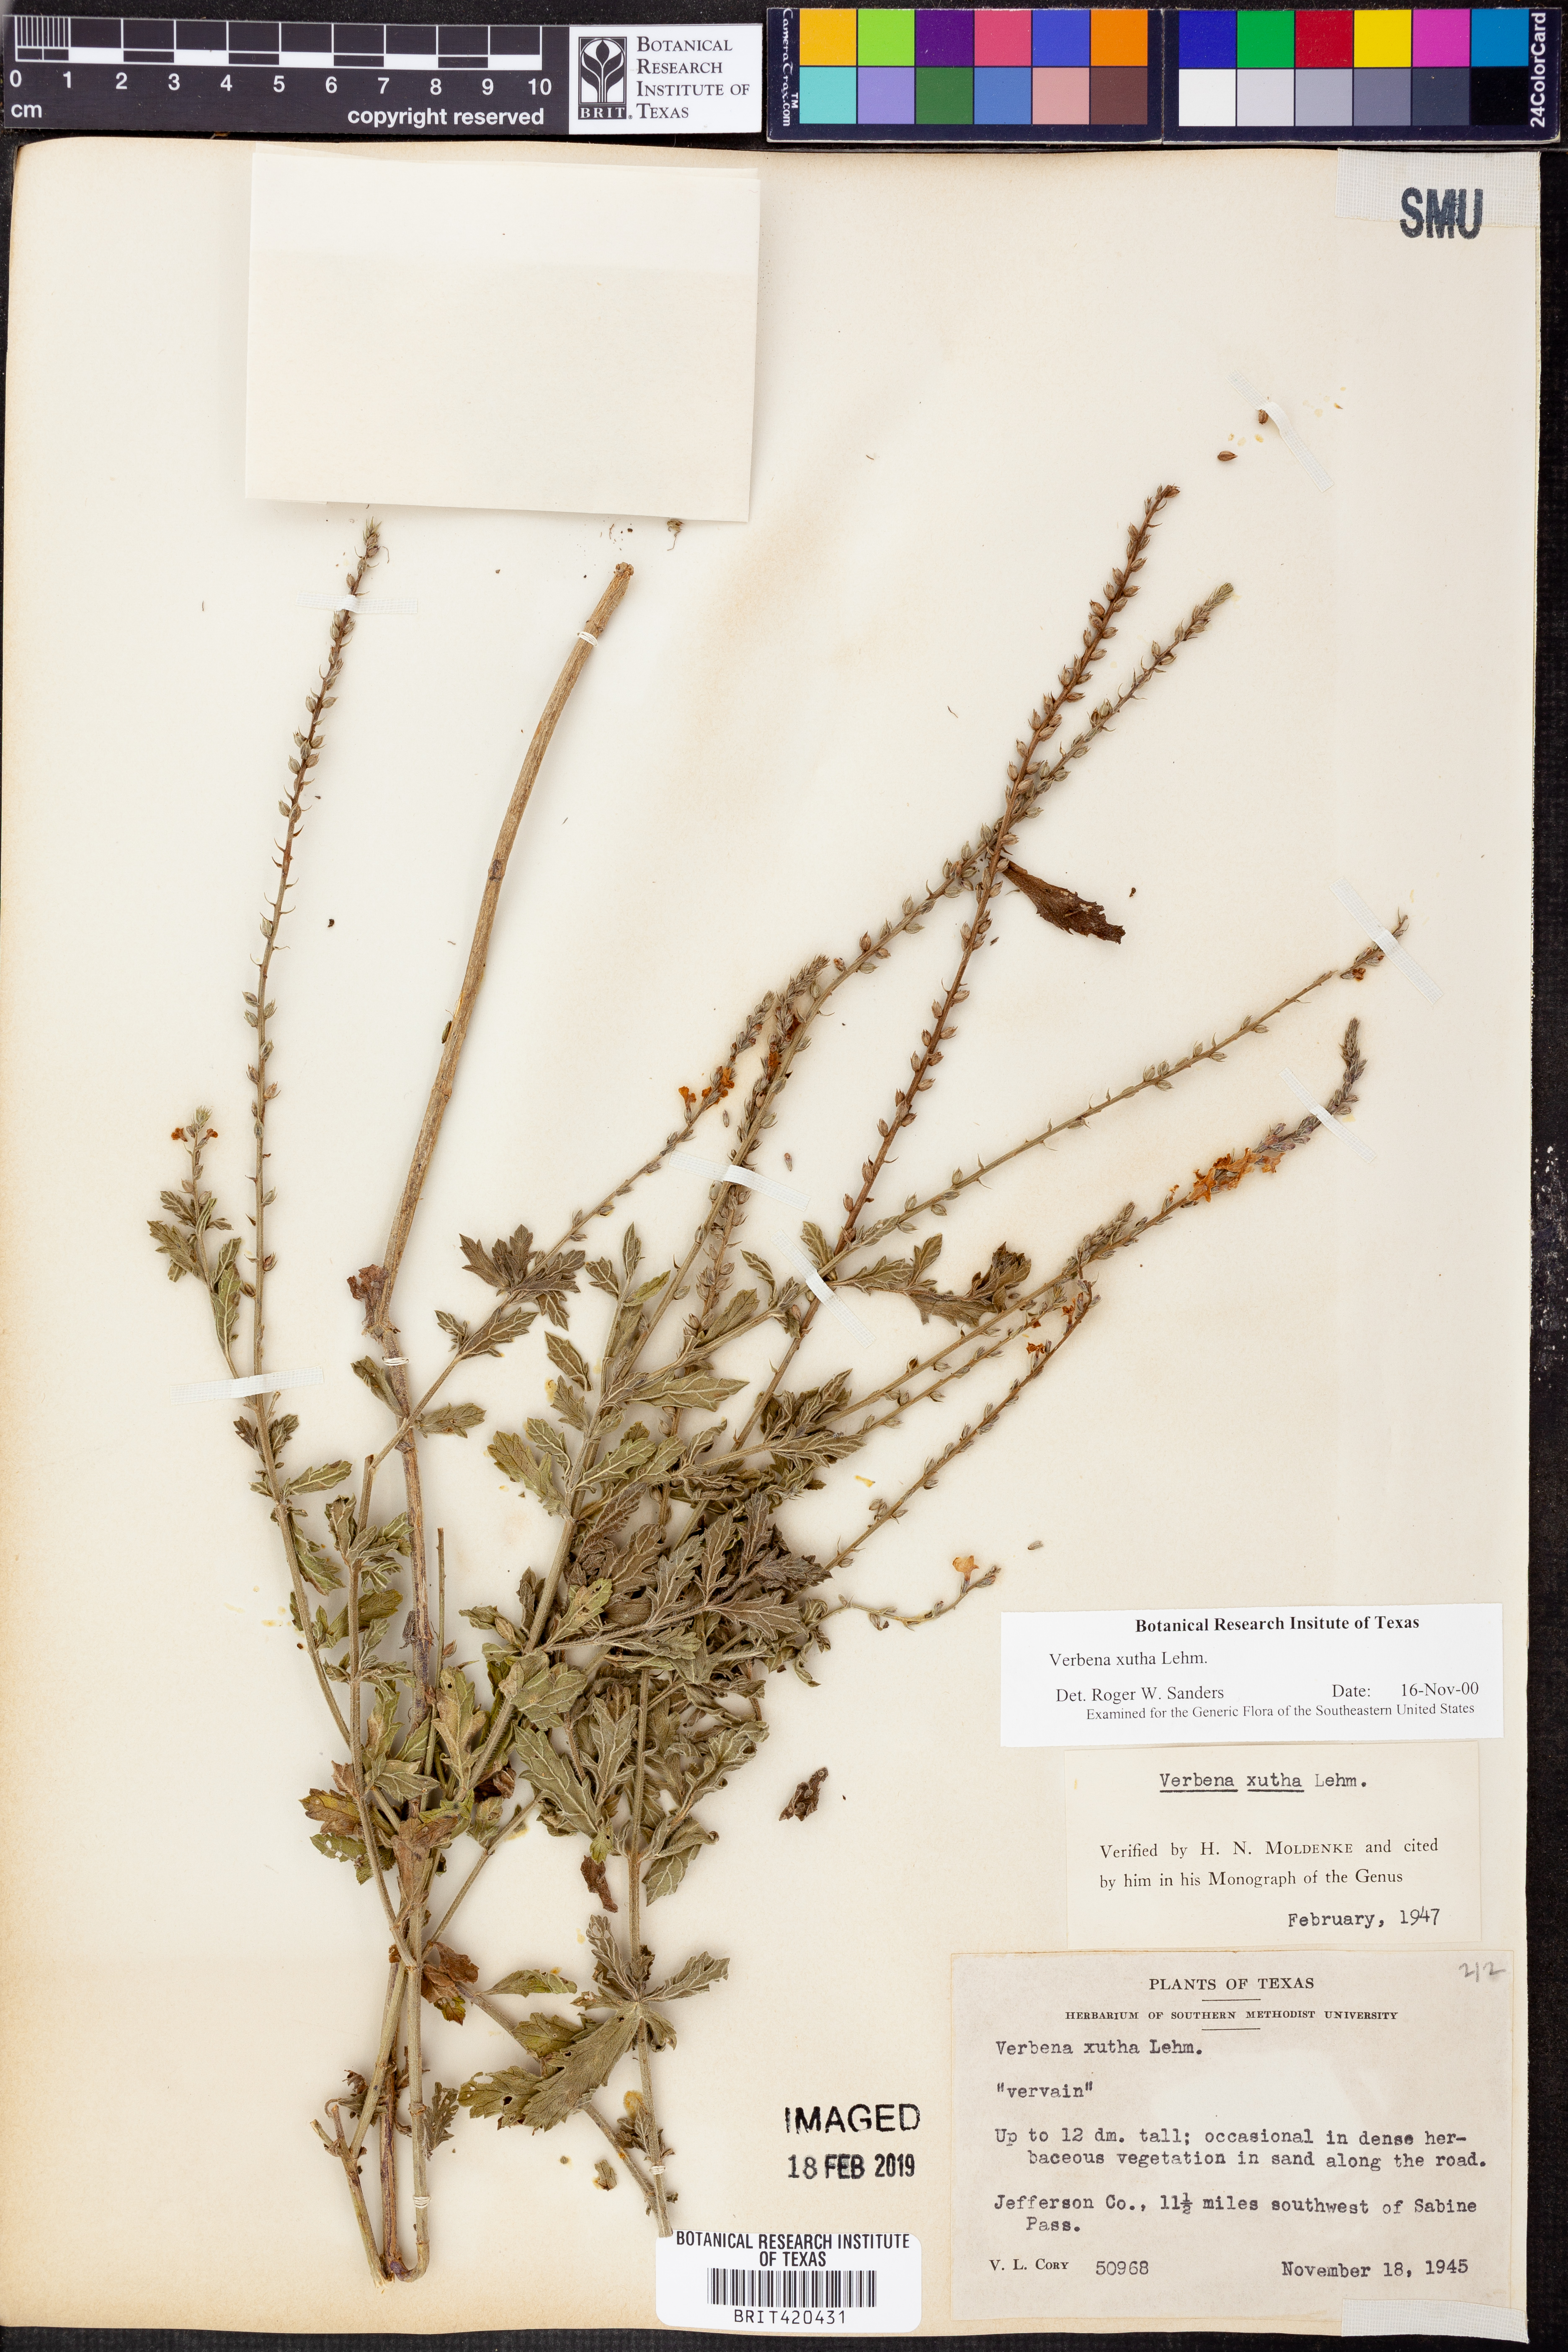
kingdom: Plantae
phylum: Tracheophyta
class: Magnoliopsida
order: Lamiales
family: Verbenaceae
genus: Verbena
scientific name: Verbena xutha
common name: Gulf vervain
